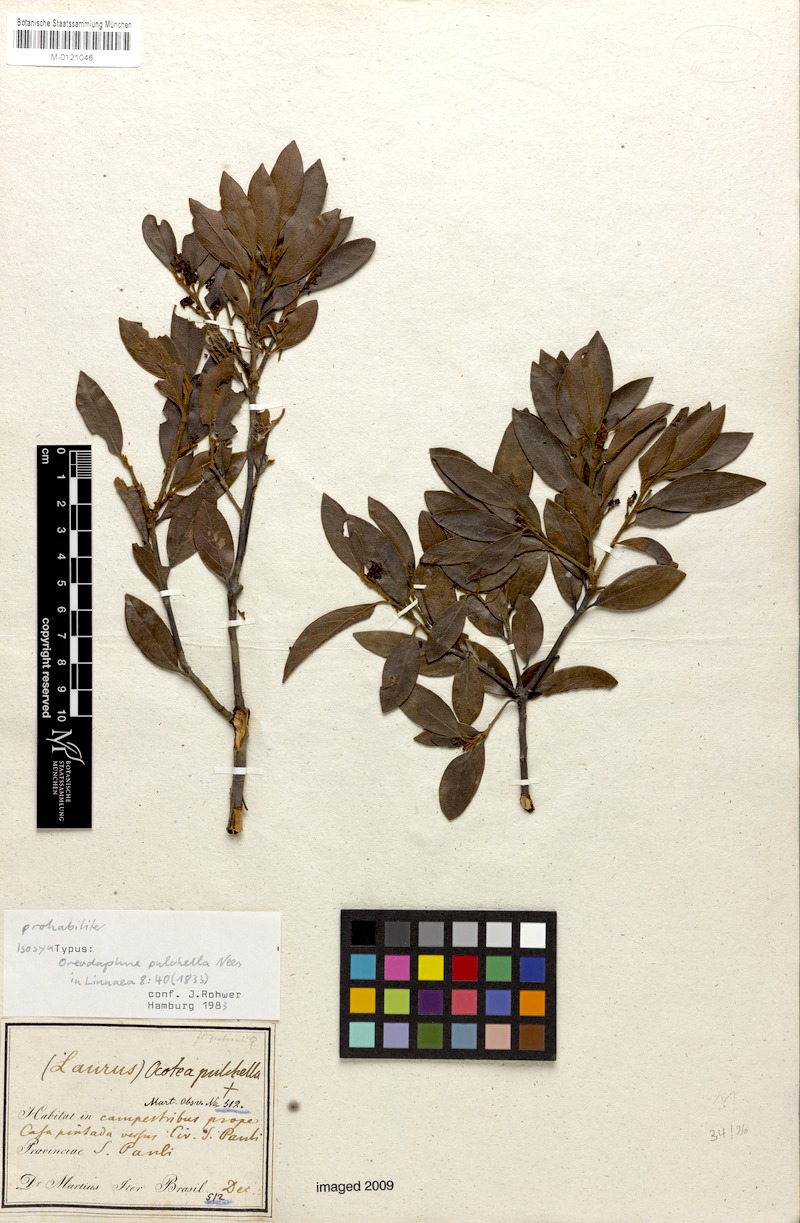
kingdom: Plantae
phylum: Tracheophyta
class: Magnoliopsida
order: Laurales
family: Lauraceae
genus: Mespilodaphne
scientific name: Mespilodaphne pulchella
